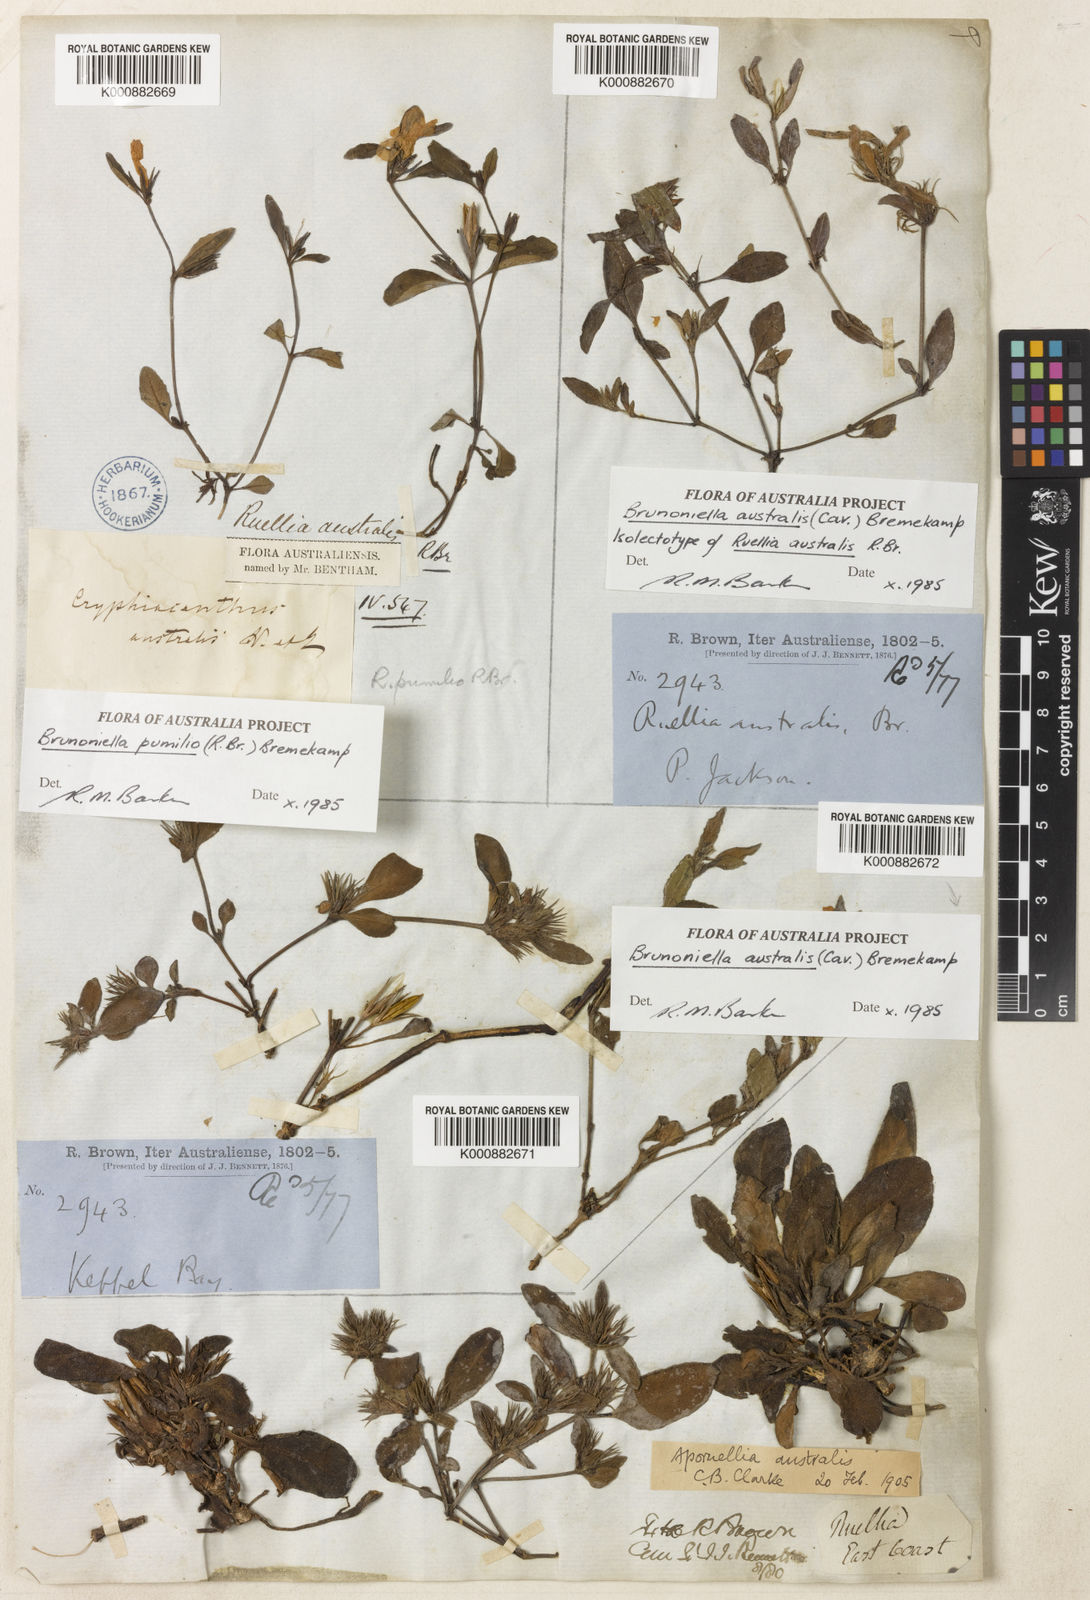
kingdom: Plantae
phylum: Tracheophyta
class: Magnoliopsida
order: Lamiales
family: Acanthaceae
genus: Brunoniella
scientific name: Brunoniella australis
